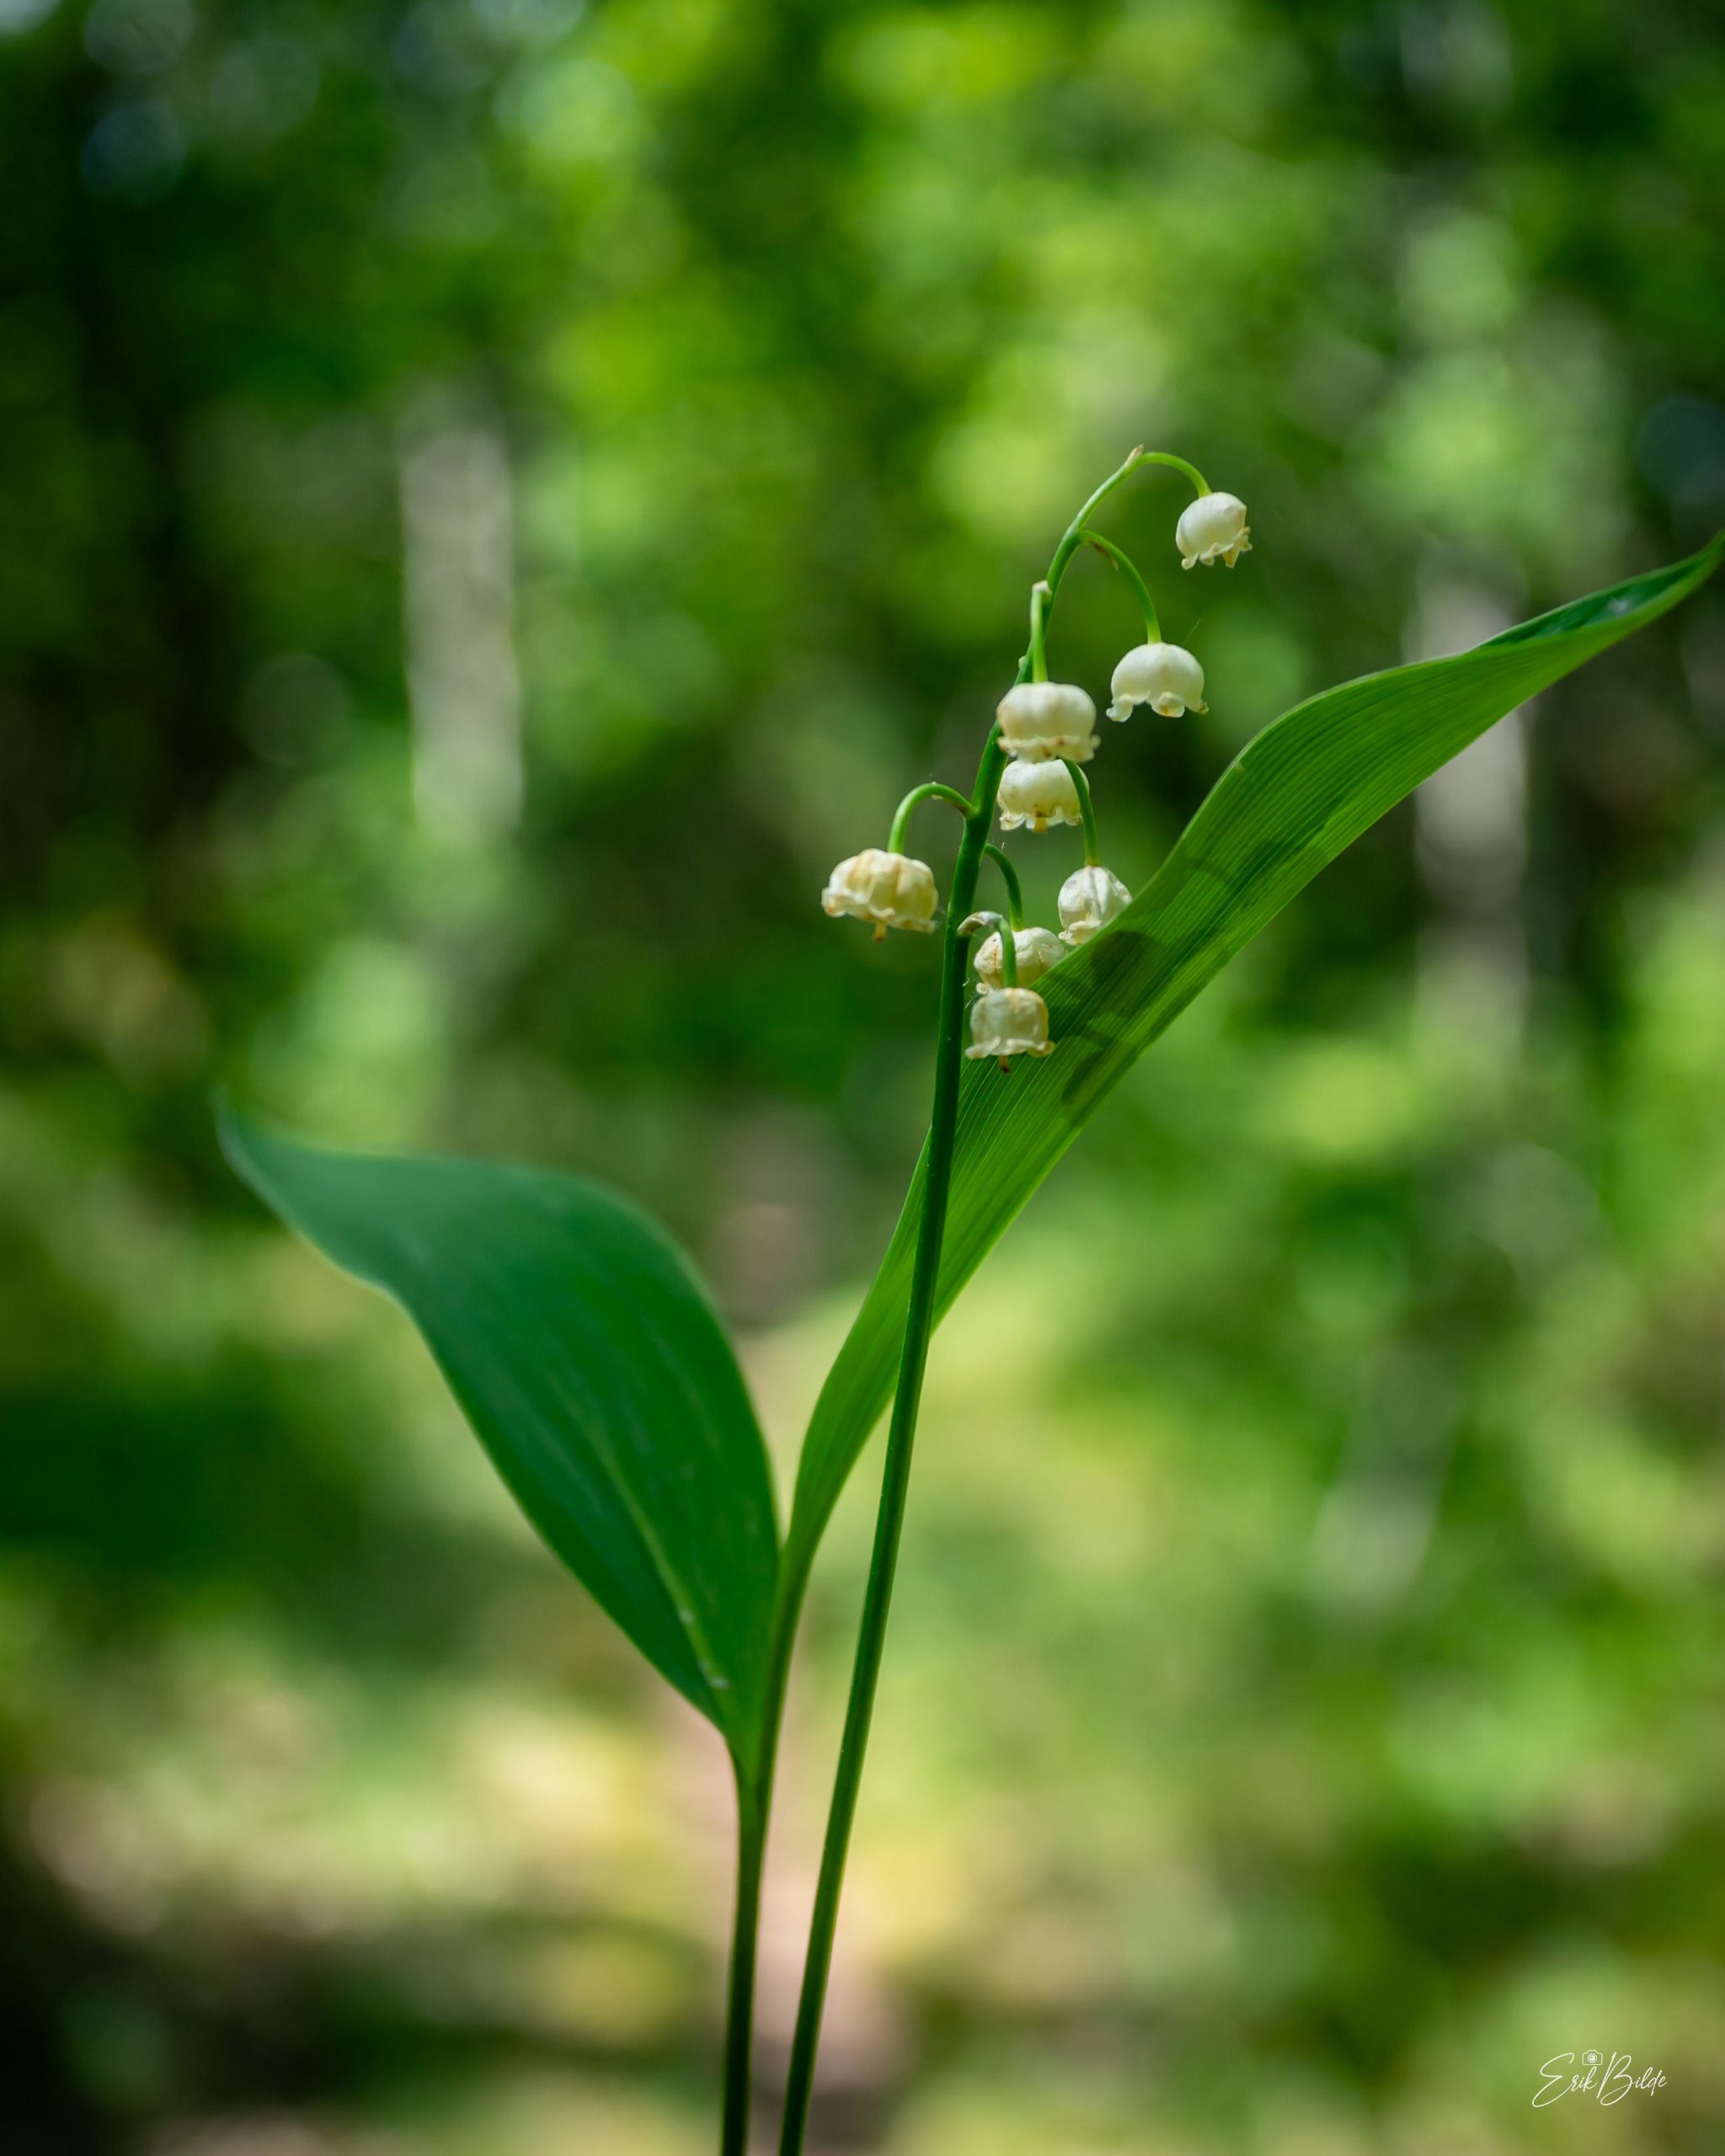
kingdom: Plantae
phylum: Tracheophyta
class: Liliopsida
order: Asparagales
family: Asparagaceae
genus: Convallaria
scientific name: Convallaria majalis
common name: Liljekonval
